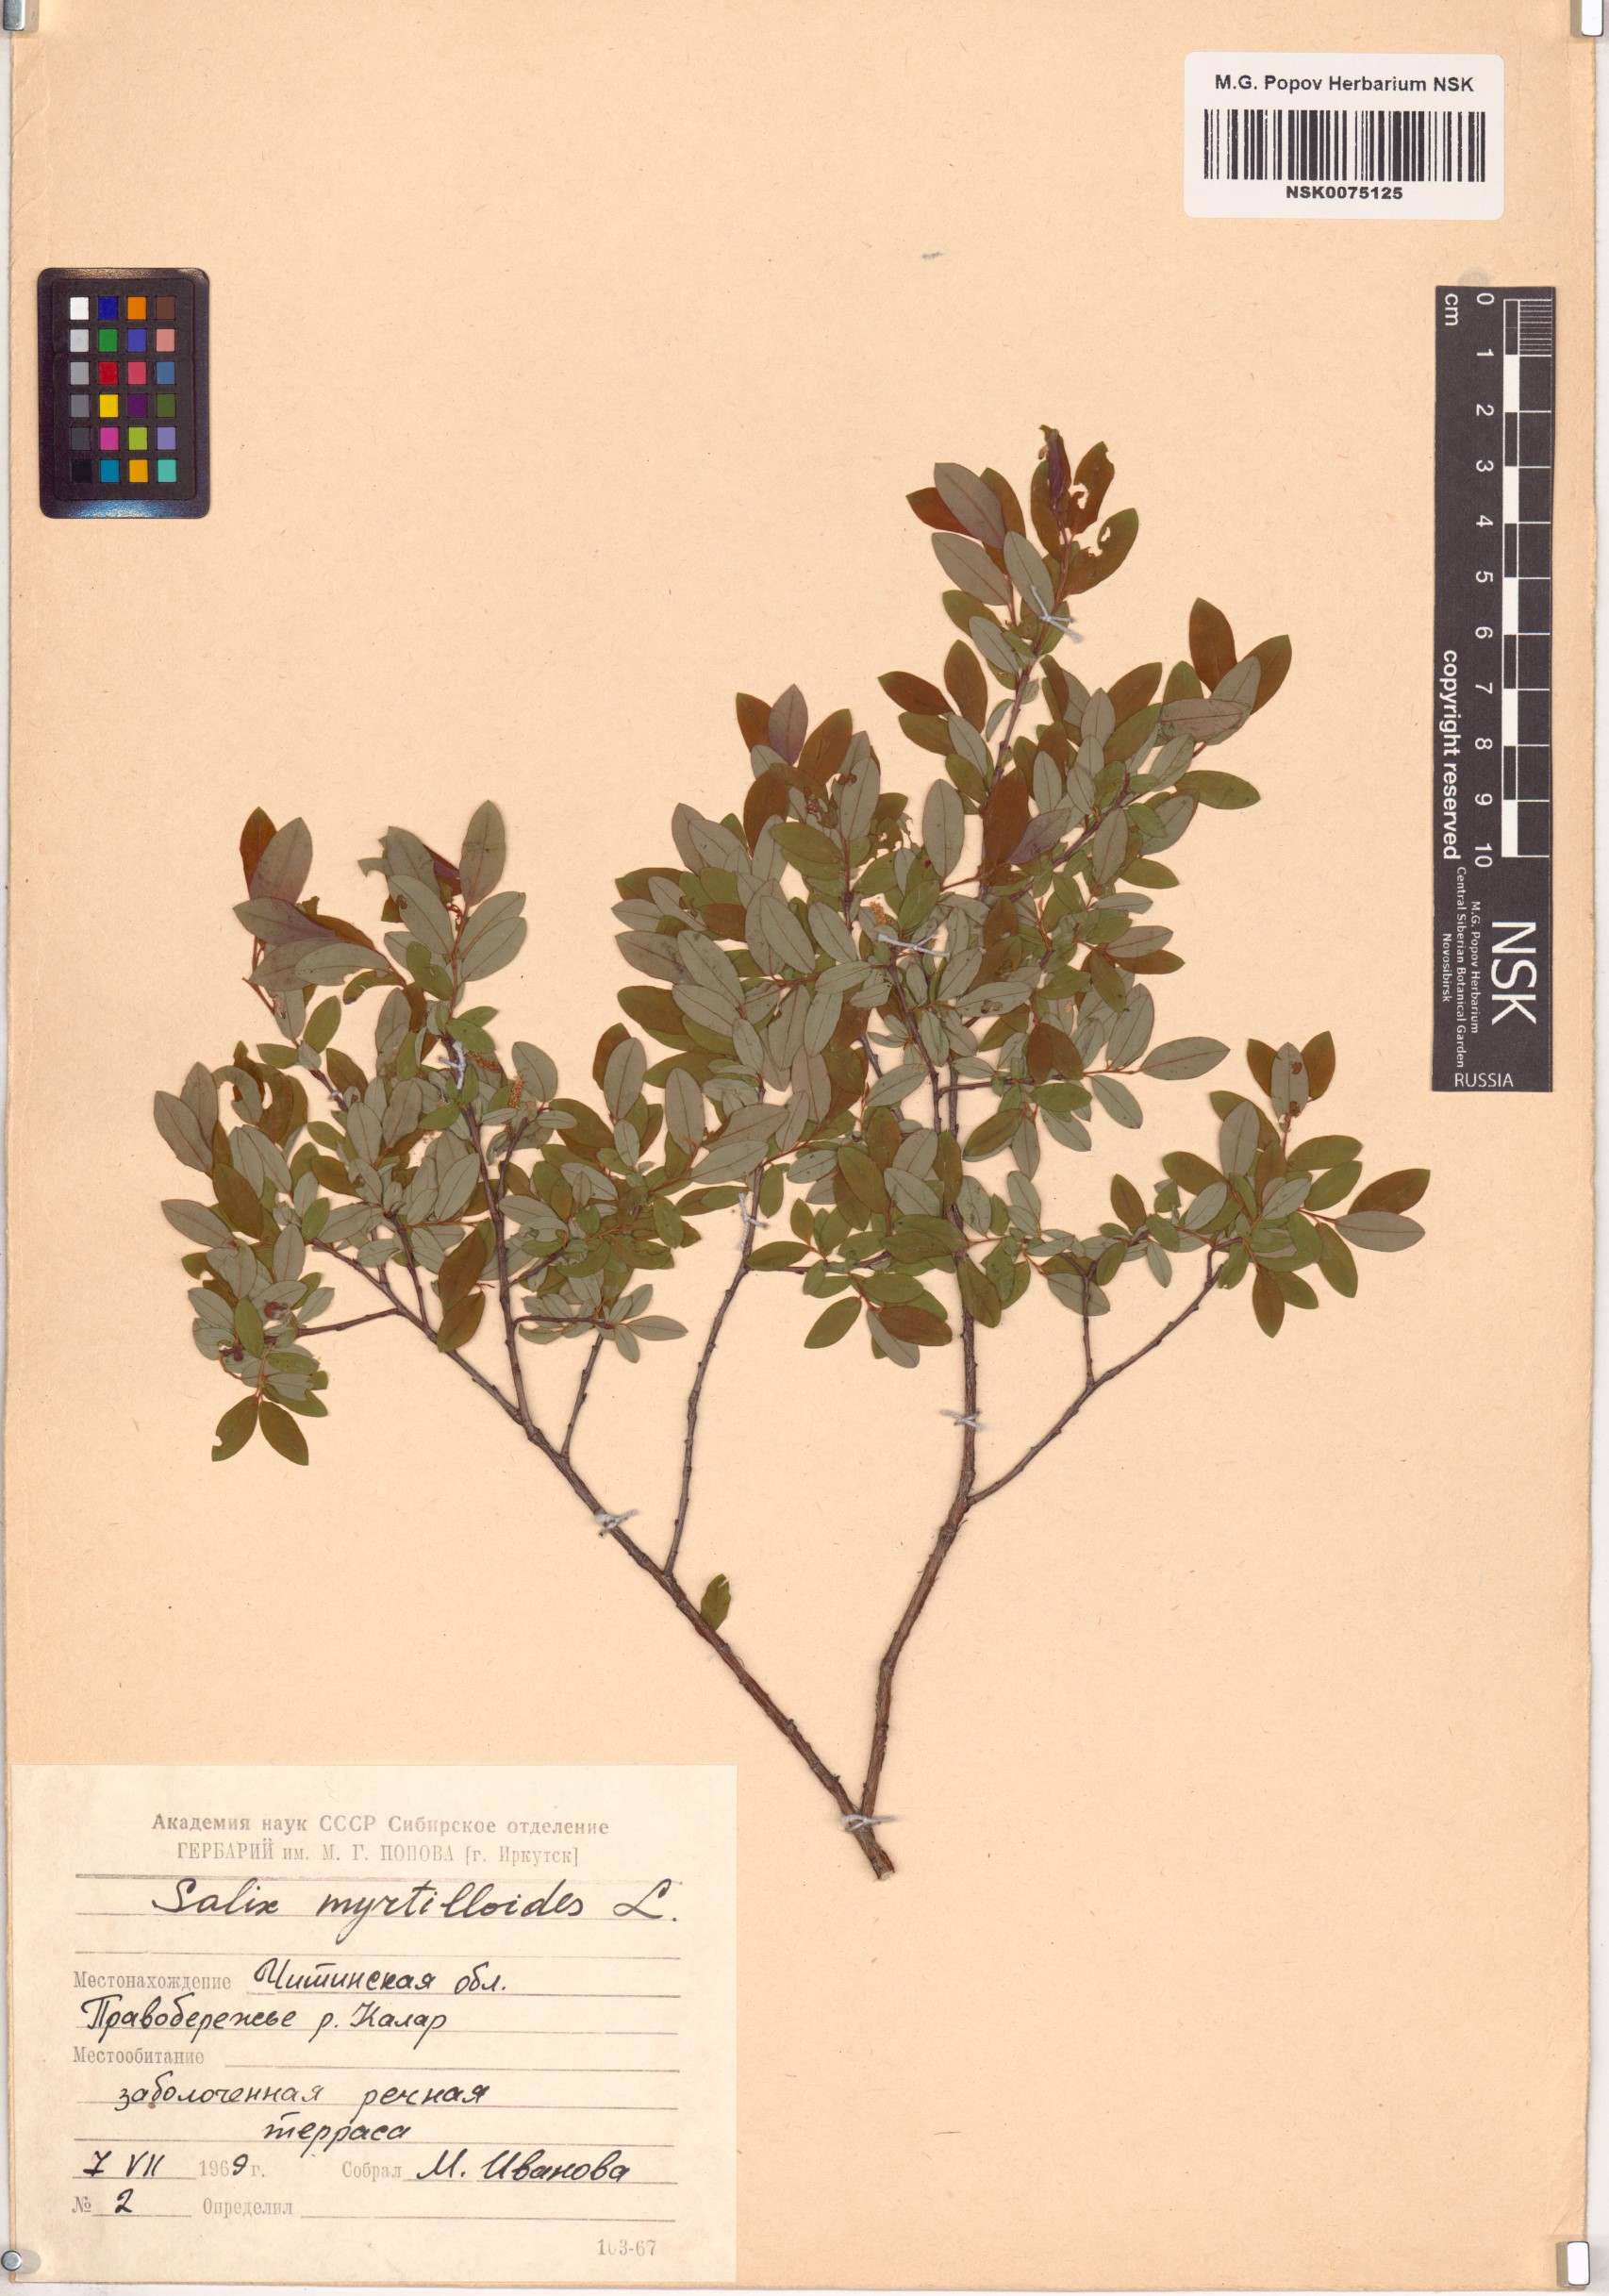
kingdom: Plantae
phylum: Tracheophyta
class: Magnoliopsida
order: Malpighiales
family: Salicaceae
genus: Salix
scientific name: Salix myrtilloides
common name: Myrtle-leaved willow
